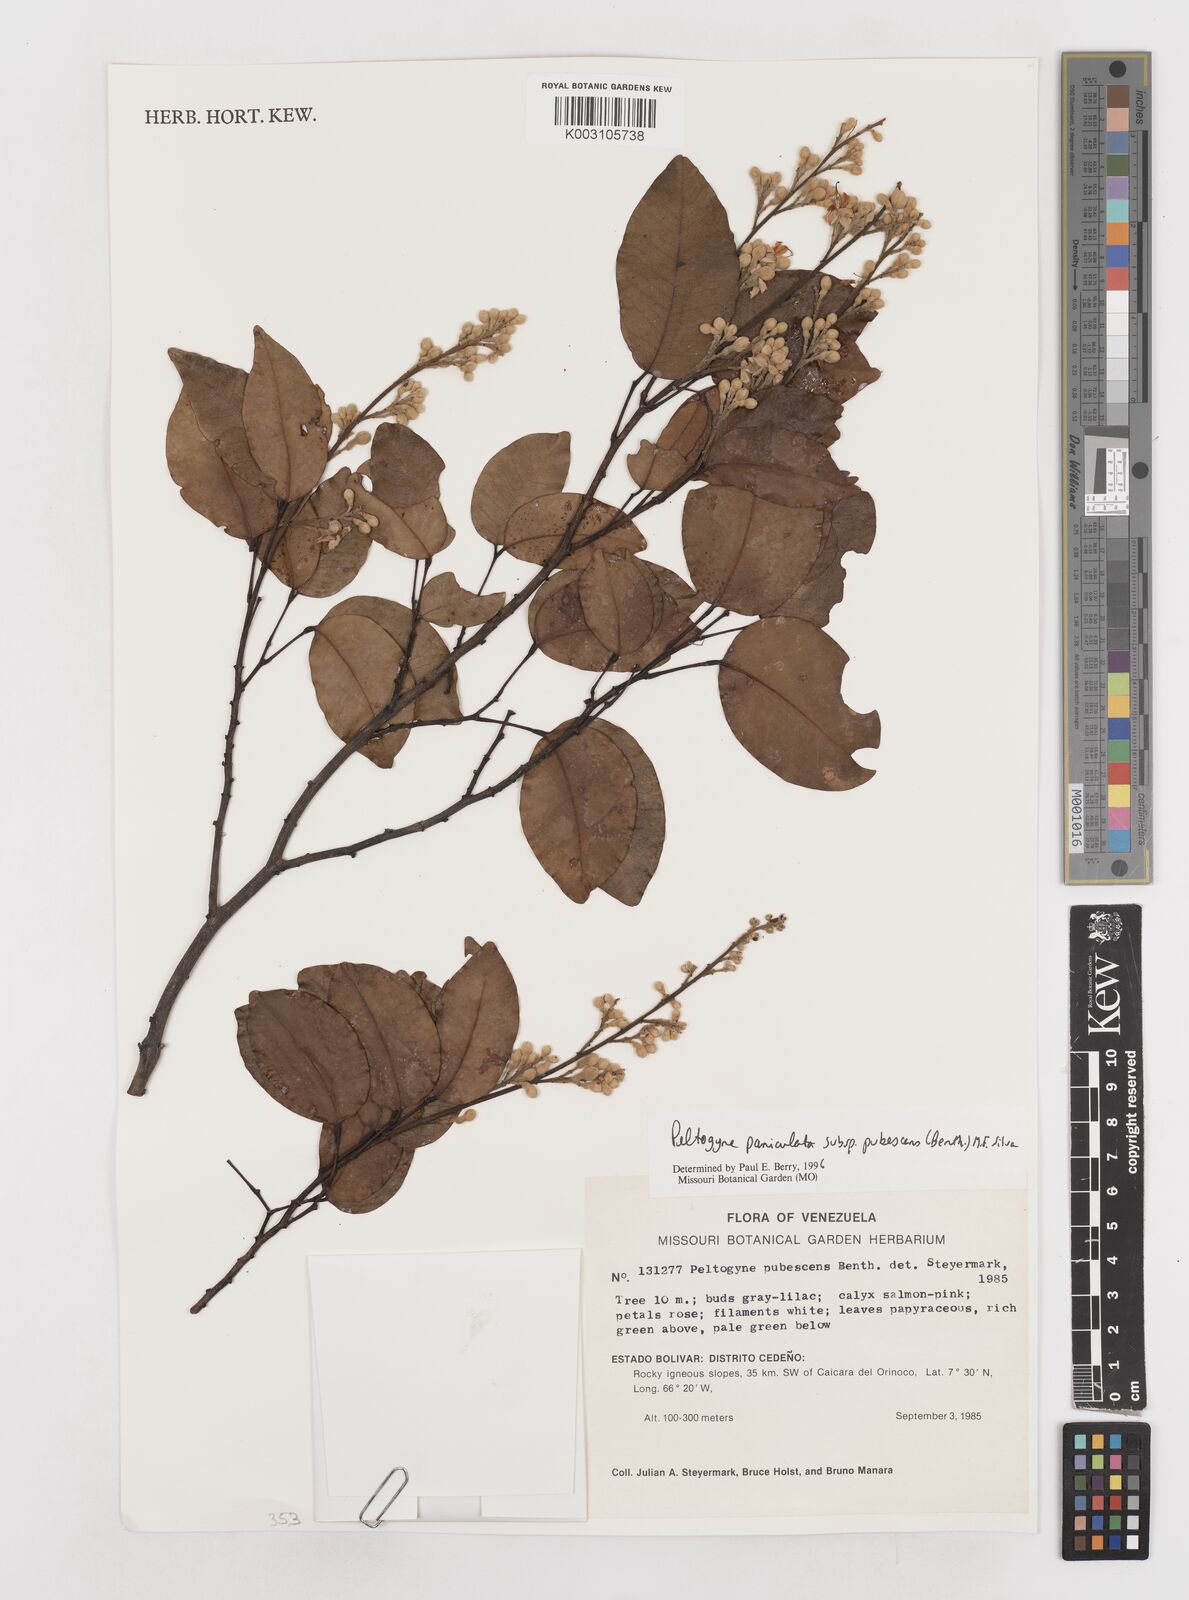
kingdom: Plantae
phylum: Tracheophyta
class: Magnoliopsida
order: Fabales
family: Fabaceae
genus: Peltogyne
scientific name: Peltogyne paniculata
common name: Purpleheart
